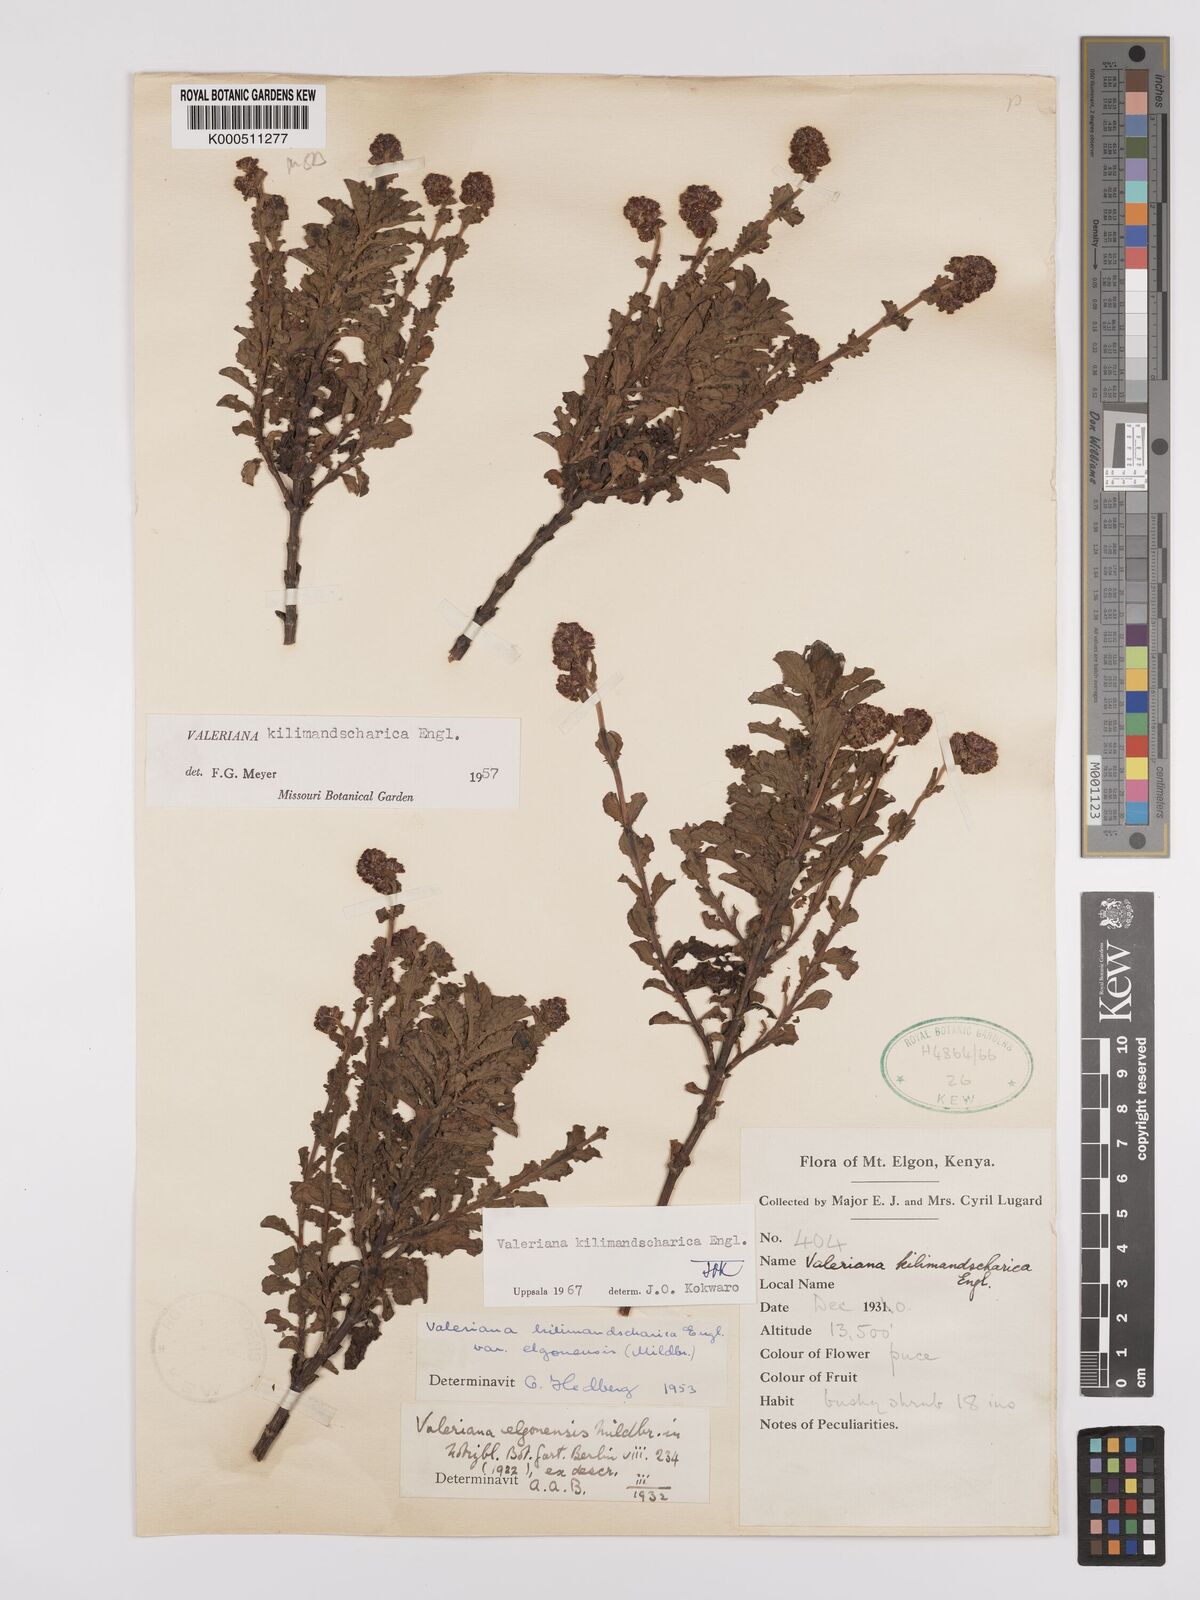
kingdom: Plantae
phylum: Tracheophyta
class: Magnoliopsida
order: Dipsacales
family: Caprifoliaceae
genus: Valeriana
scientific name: Valeriana kilimandscharica
